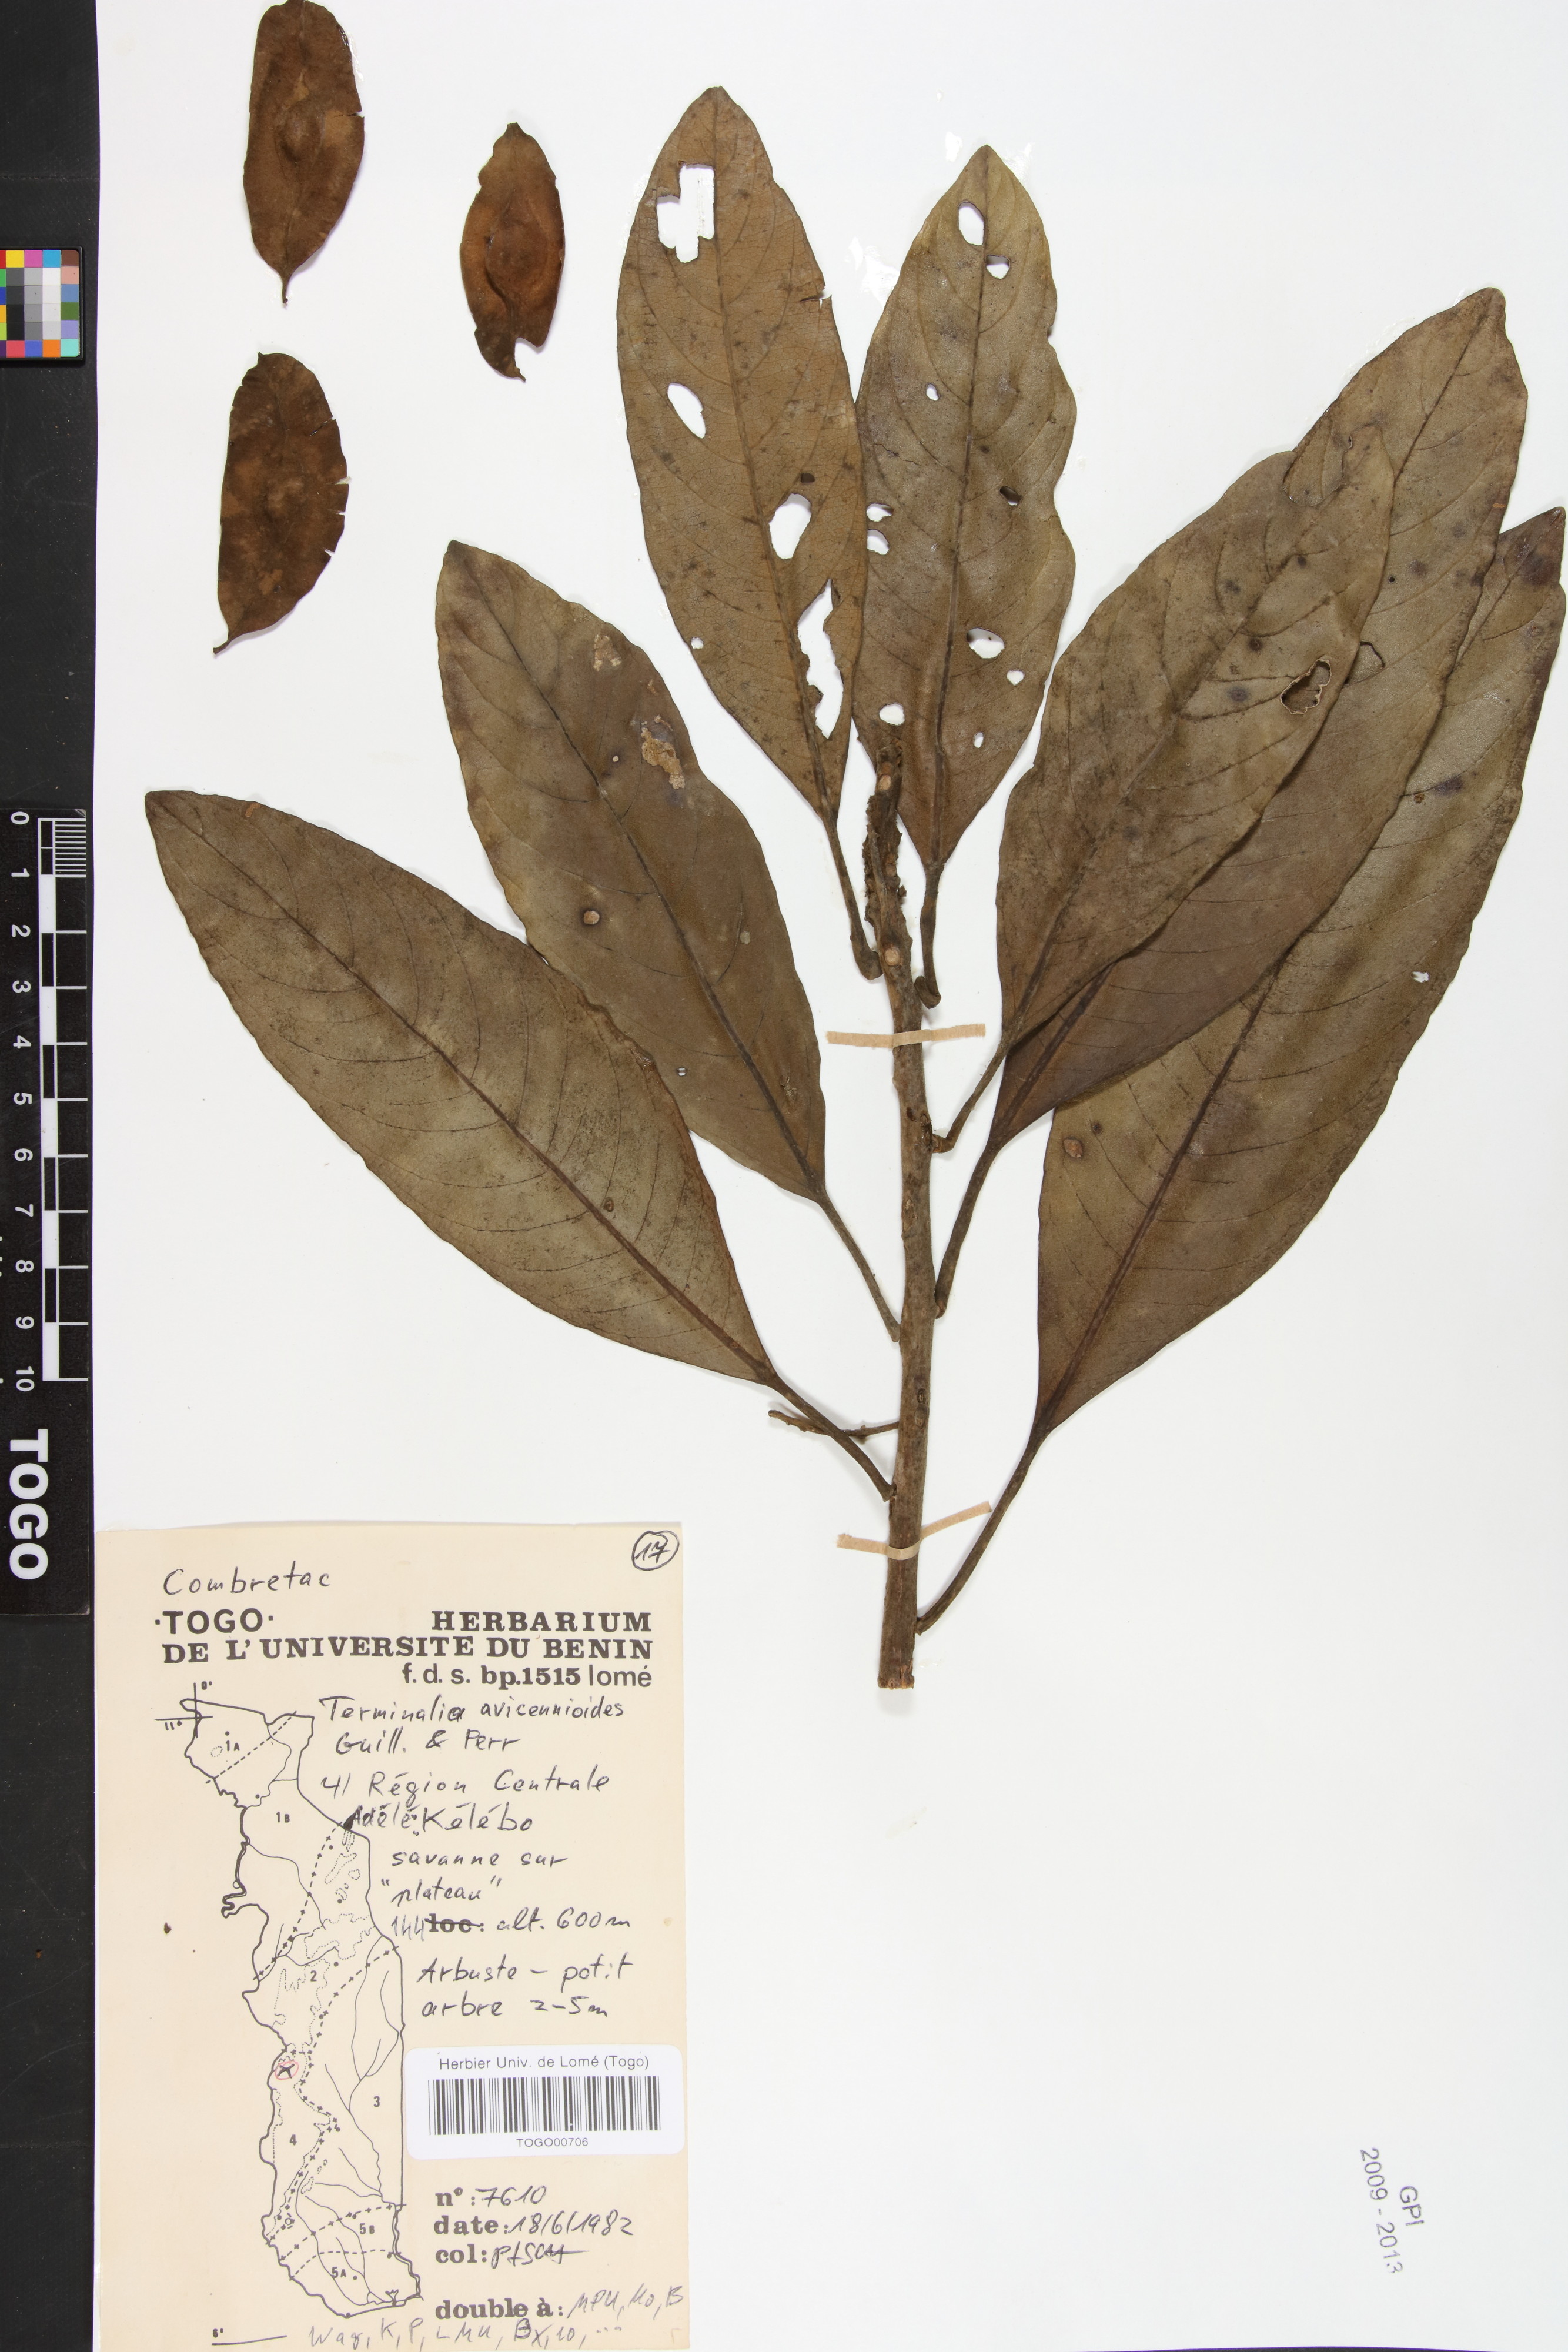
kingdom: Plantae
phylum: Tracheophyta
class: Magnoliopsida
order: Myrtales
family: Combretaceae
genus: Terminalia
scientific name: Terminalia avicennioides
